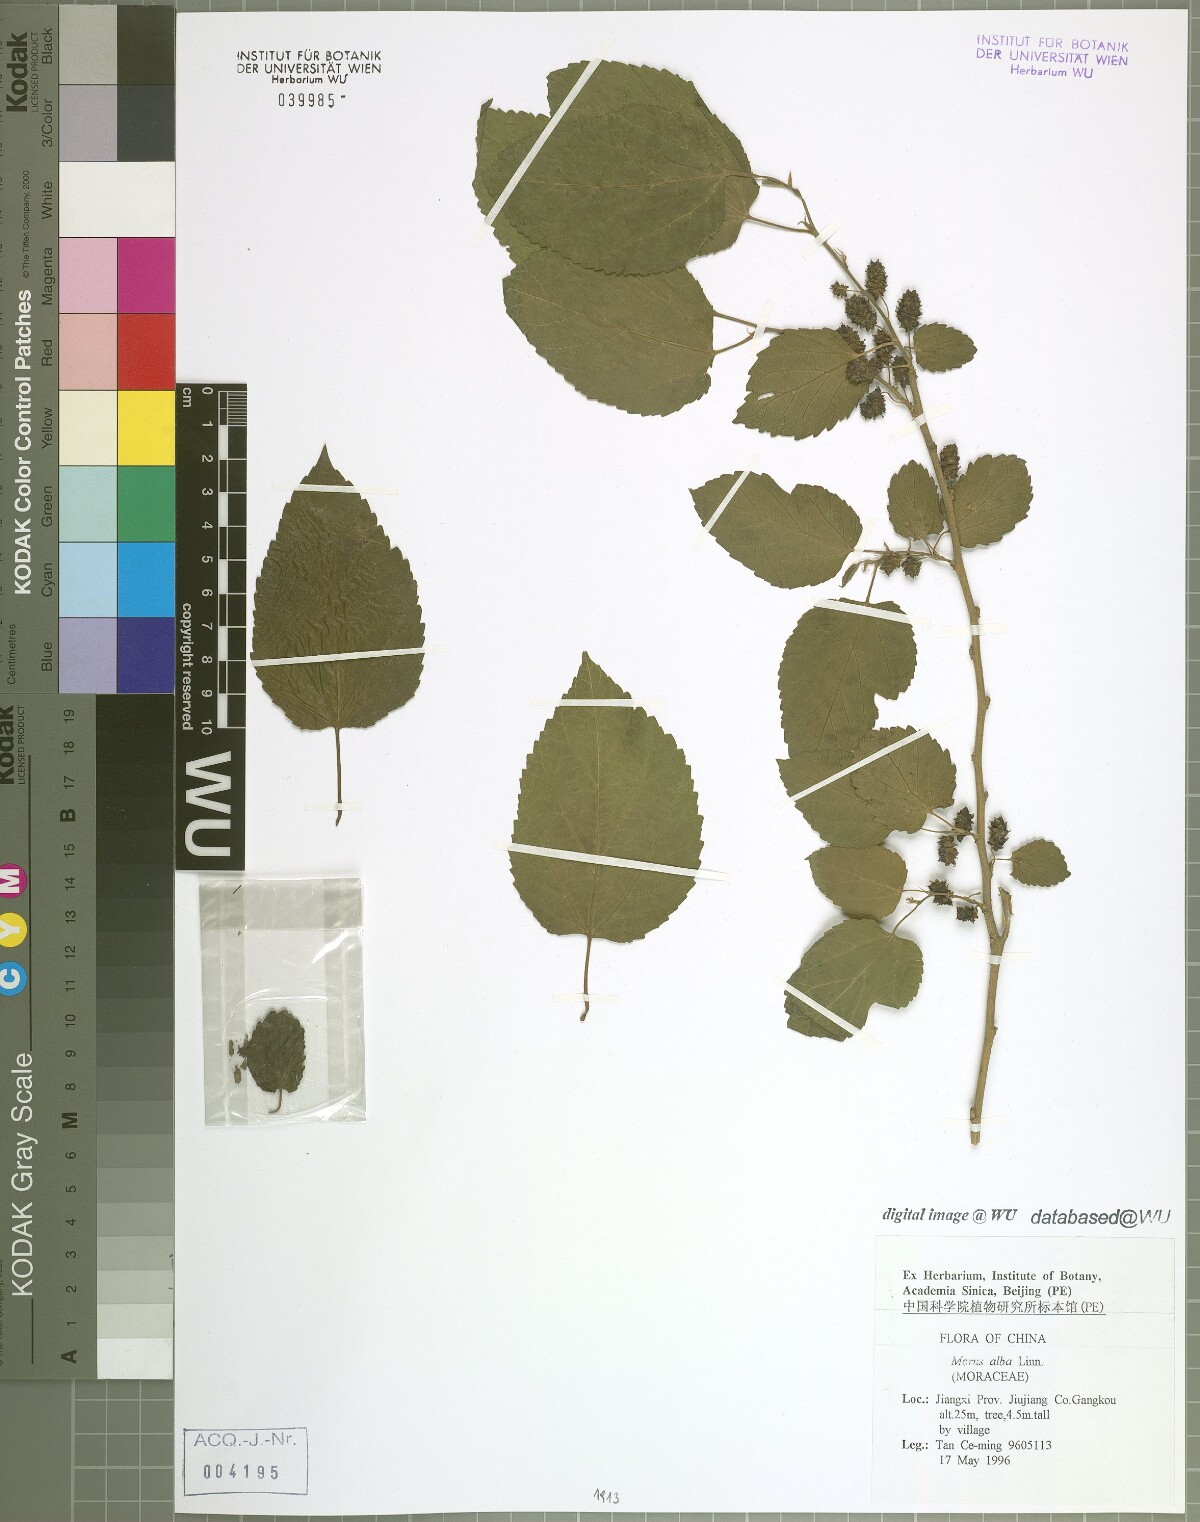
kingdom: Plantae
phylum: Tracheophyta
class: Magnoliopsida
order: Rosales
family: Moraceae
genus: Morus
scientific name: Morus alba
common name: White mulberry
